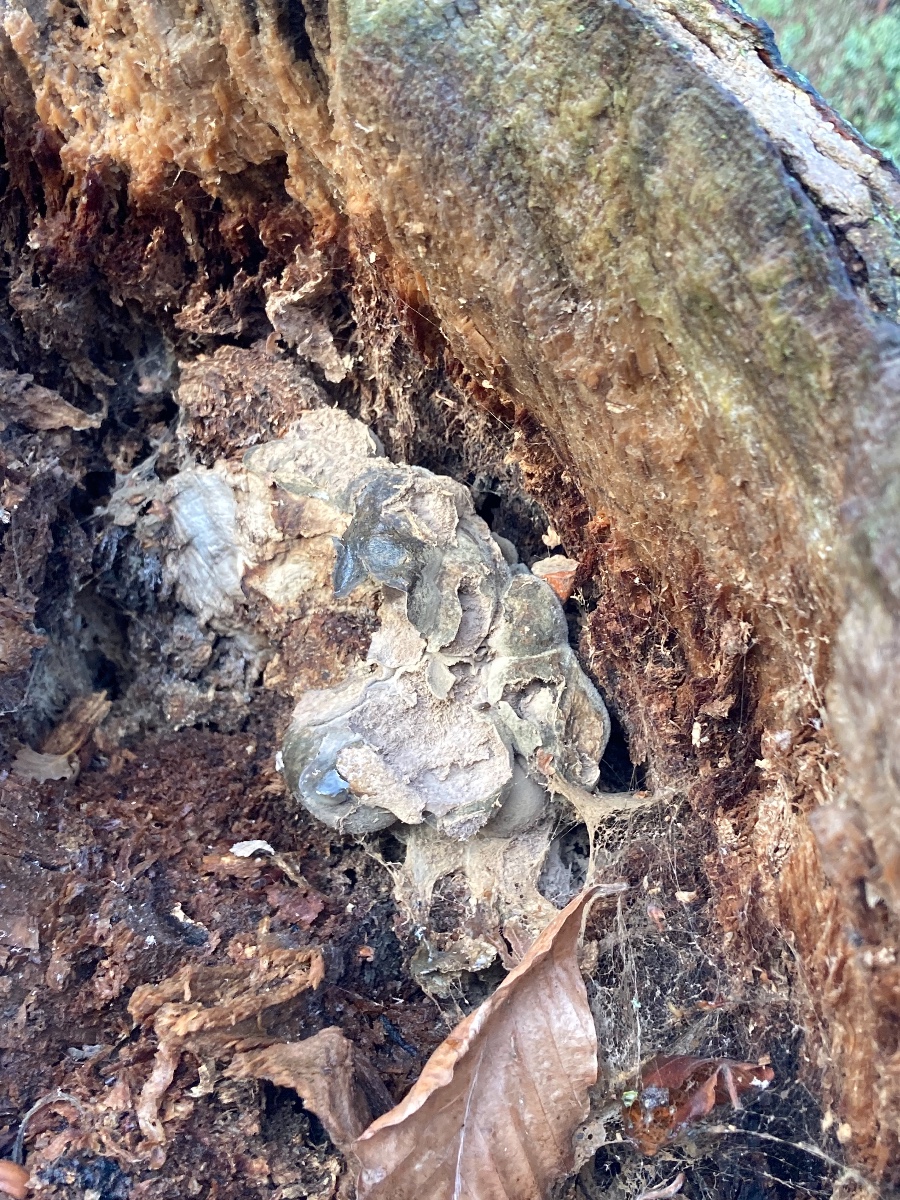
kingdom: Protozoa
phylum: Mycetozoa
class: Myxomycetes
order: Cribrariales
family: Tubiferaceae
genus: Lycogala
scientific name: Lycogala flavofuscum
